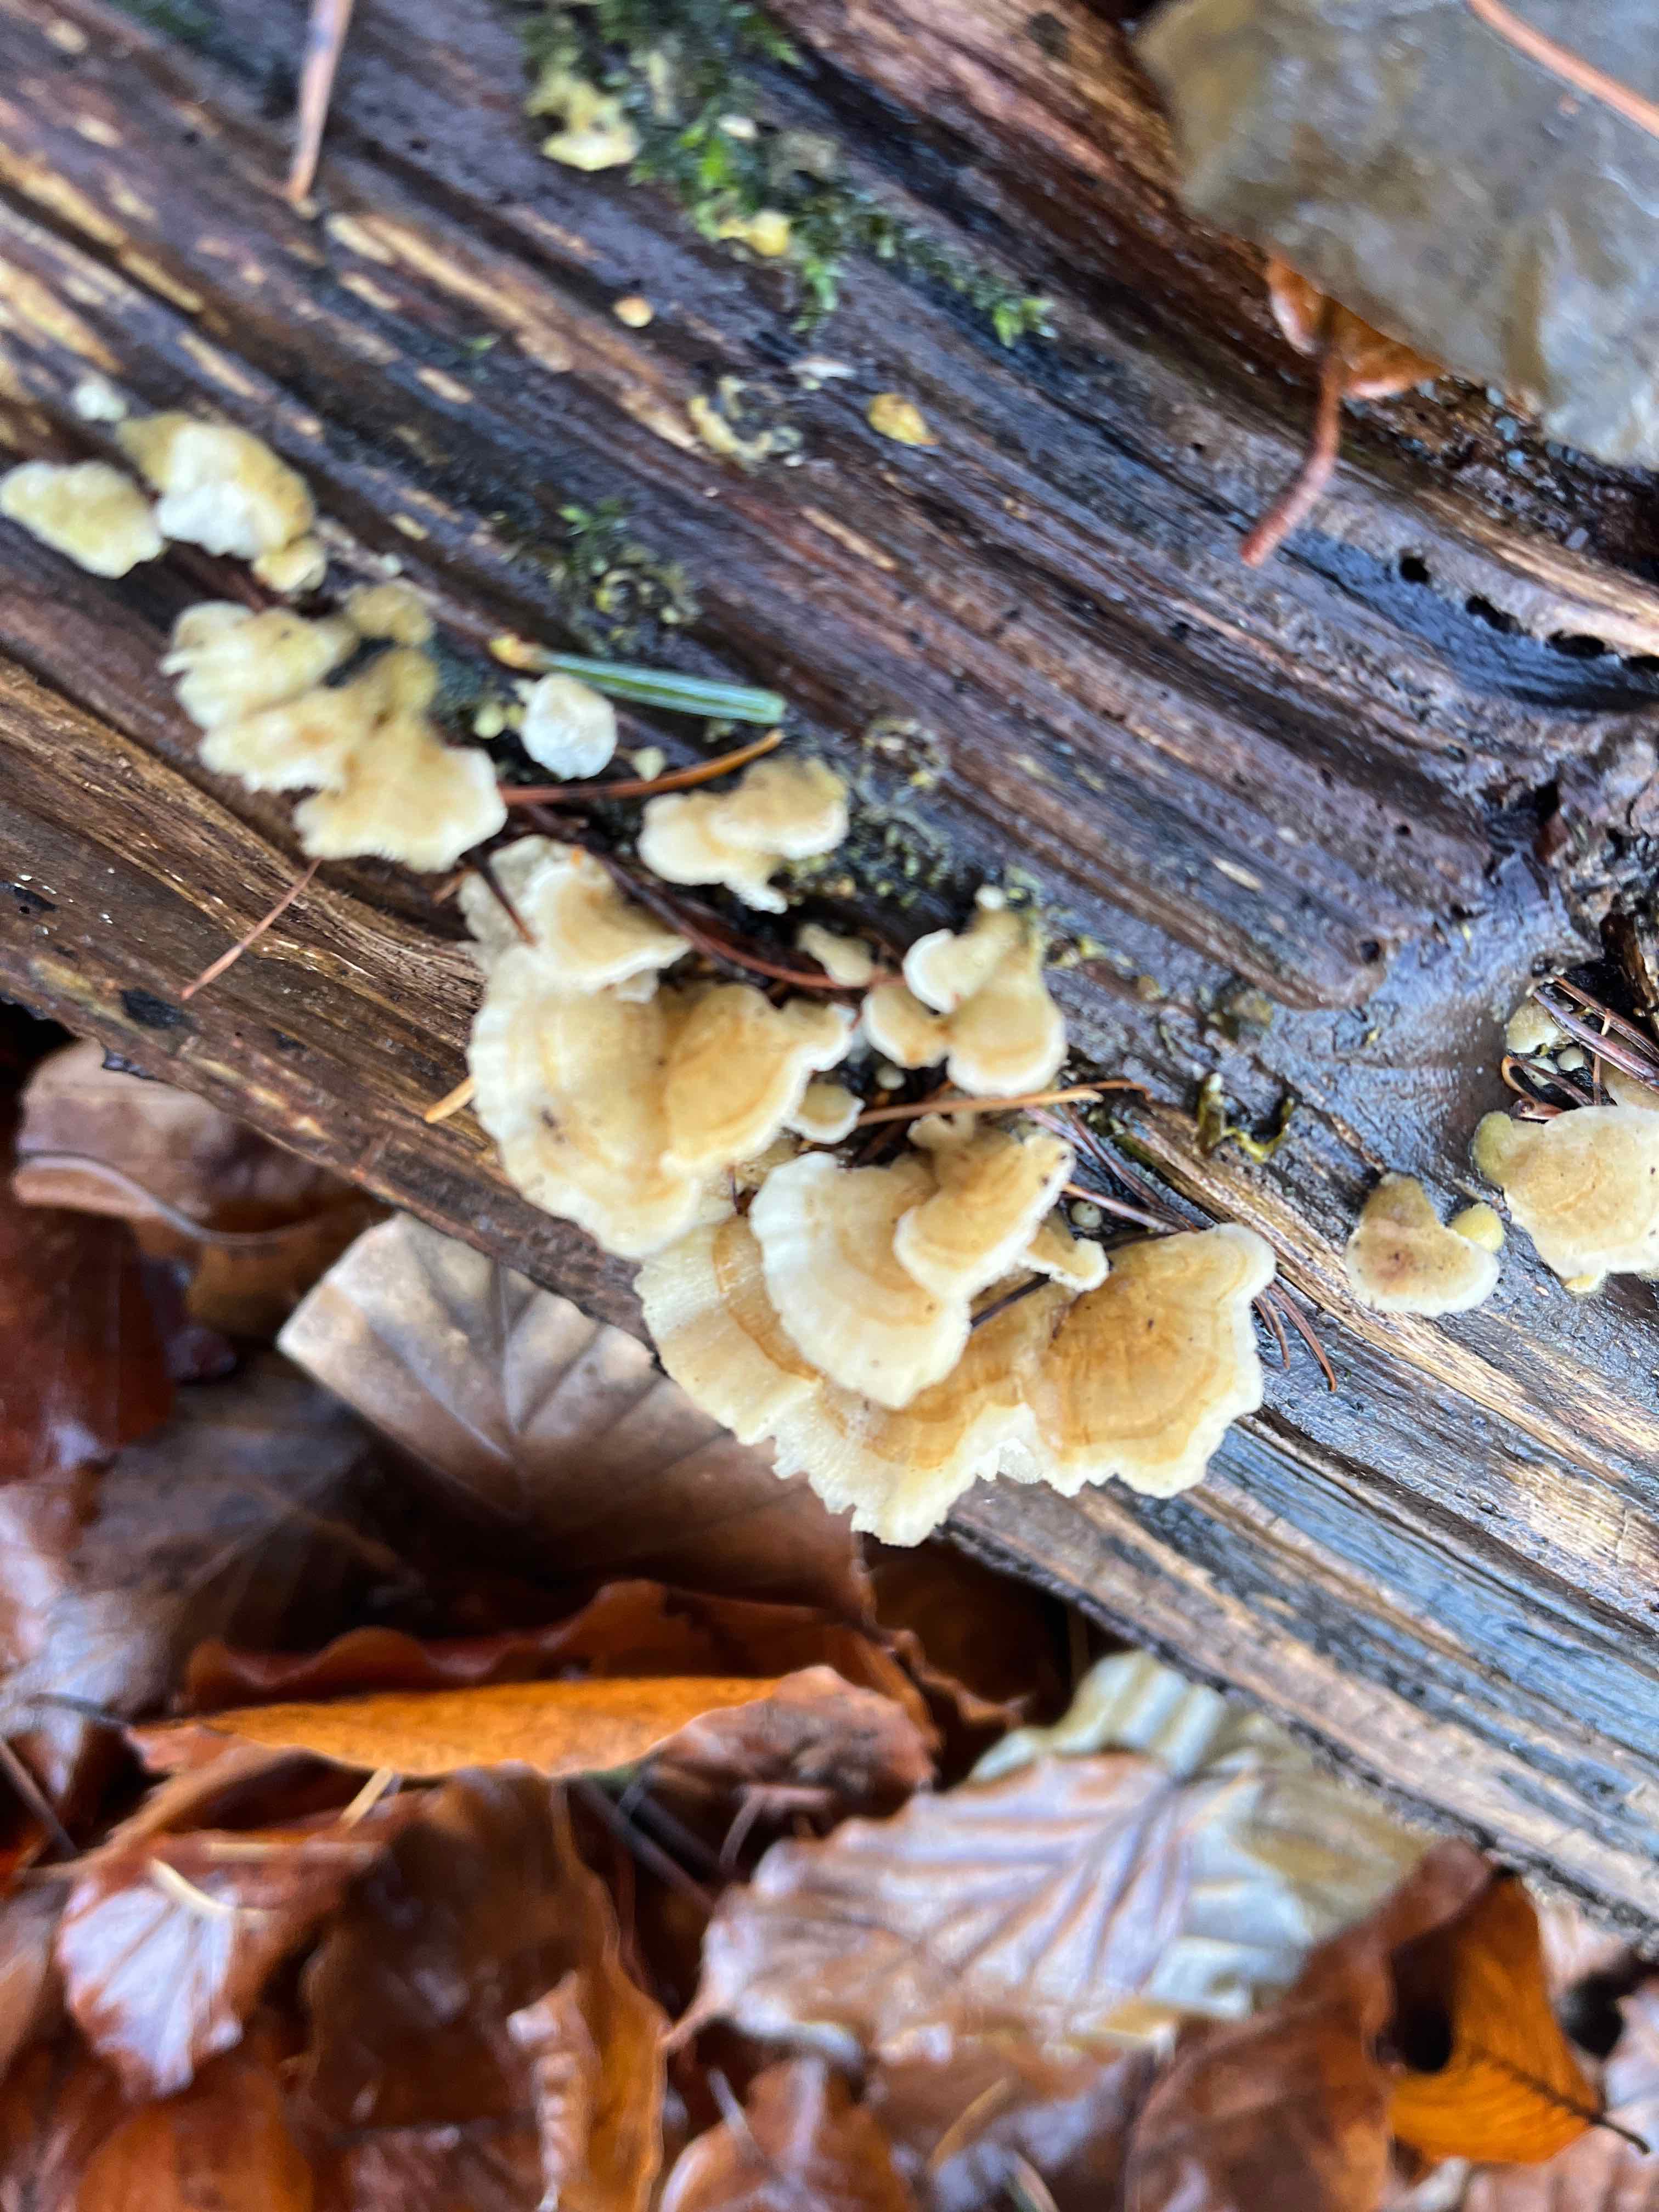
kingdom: Fungi
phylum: Basidiomycota
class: Agaricomycetes
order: Polyporales
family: Polyporaceae
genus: Trametes
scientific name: Trametes versicolor
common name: broget læderporesvamp
